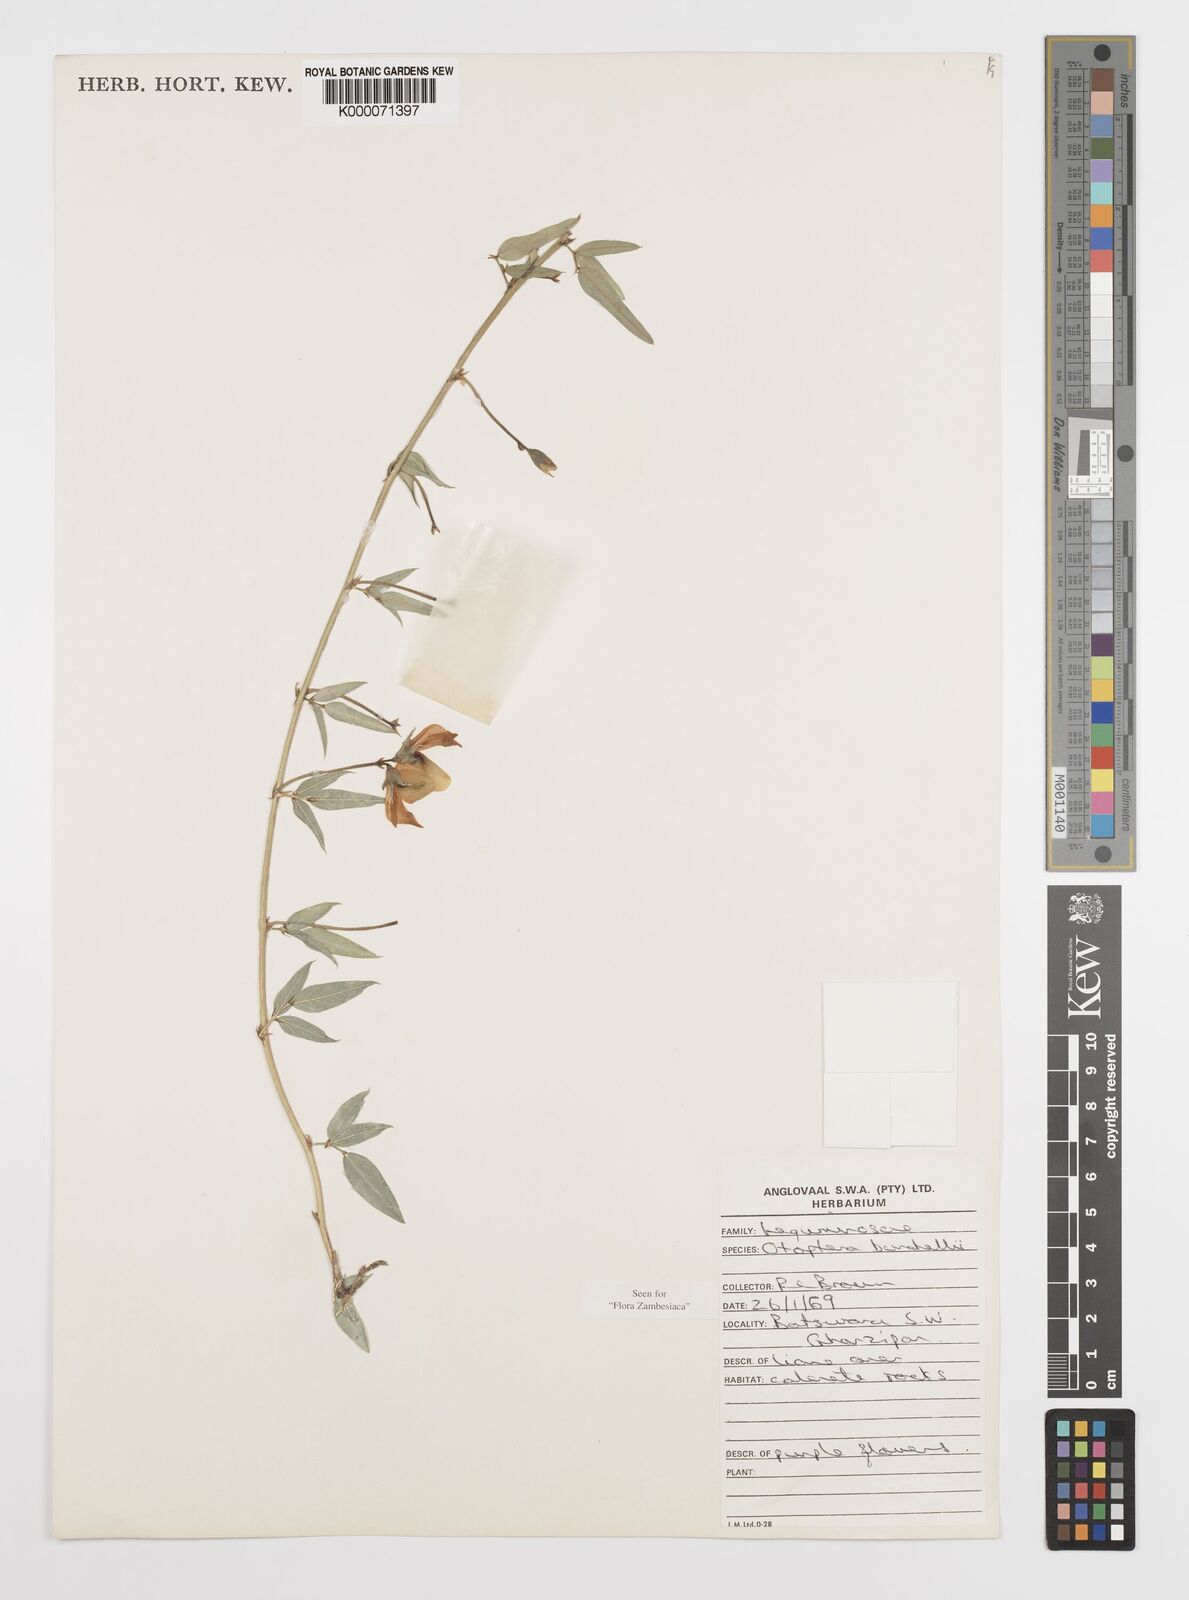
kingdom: Plantae
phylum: Tracheophyta
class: Magnoliopsida
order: Fabales
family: Fabaceae
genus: Otoptera
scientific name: Otoptera burchellii
